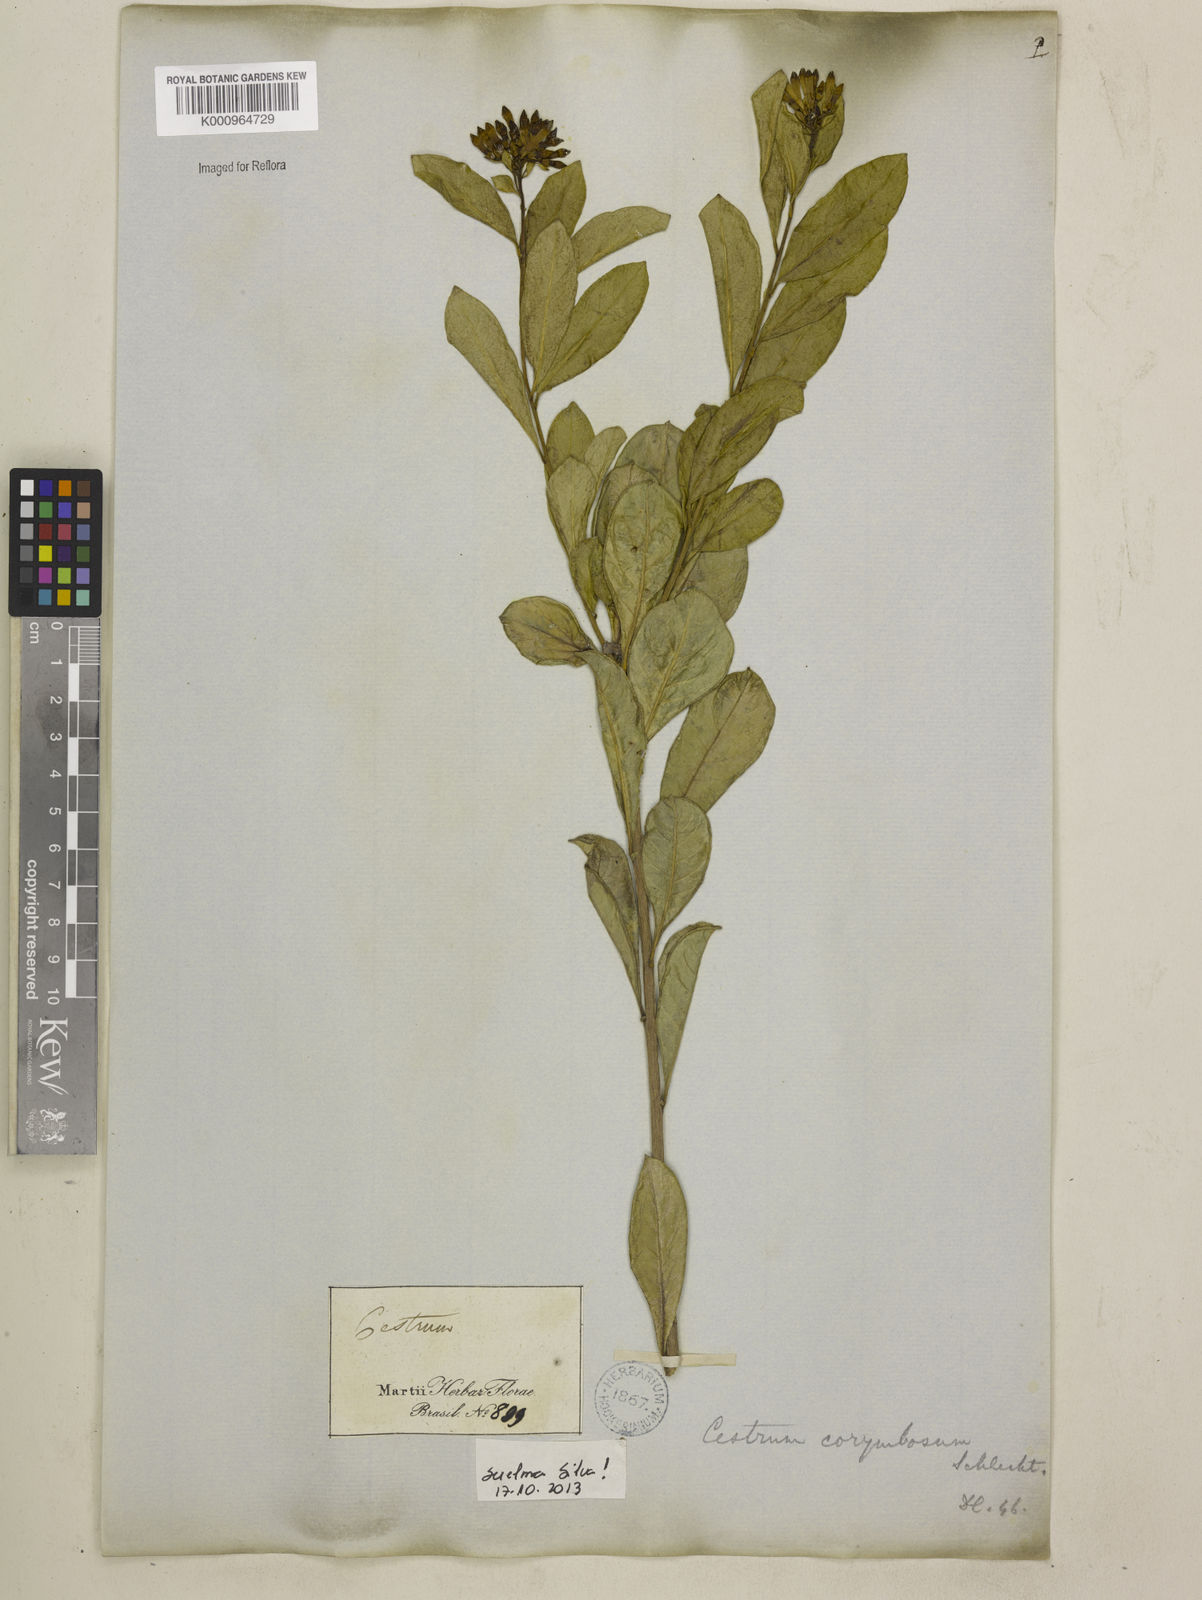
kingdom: Plantae
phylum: Tracheophyta
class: Magnoliopsida
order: Solanales
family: Solanaceae
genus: Cestrum
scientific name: Cestrum corymbosum
